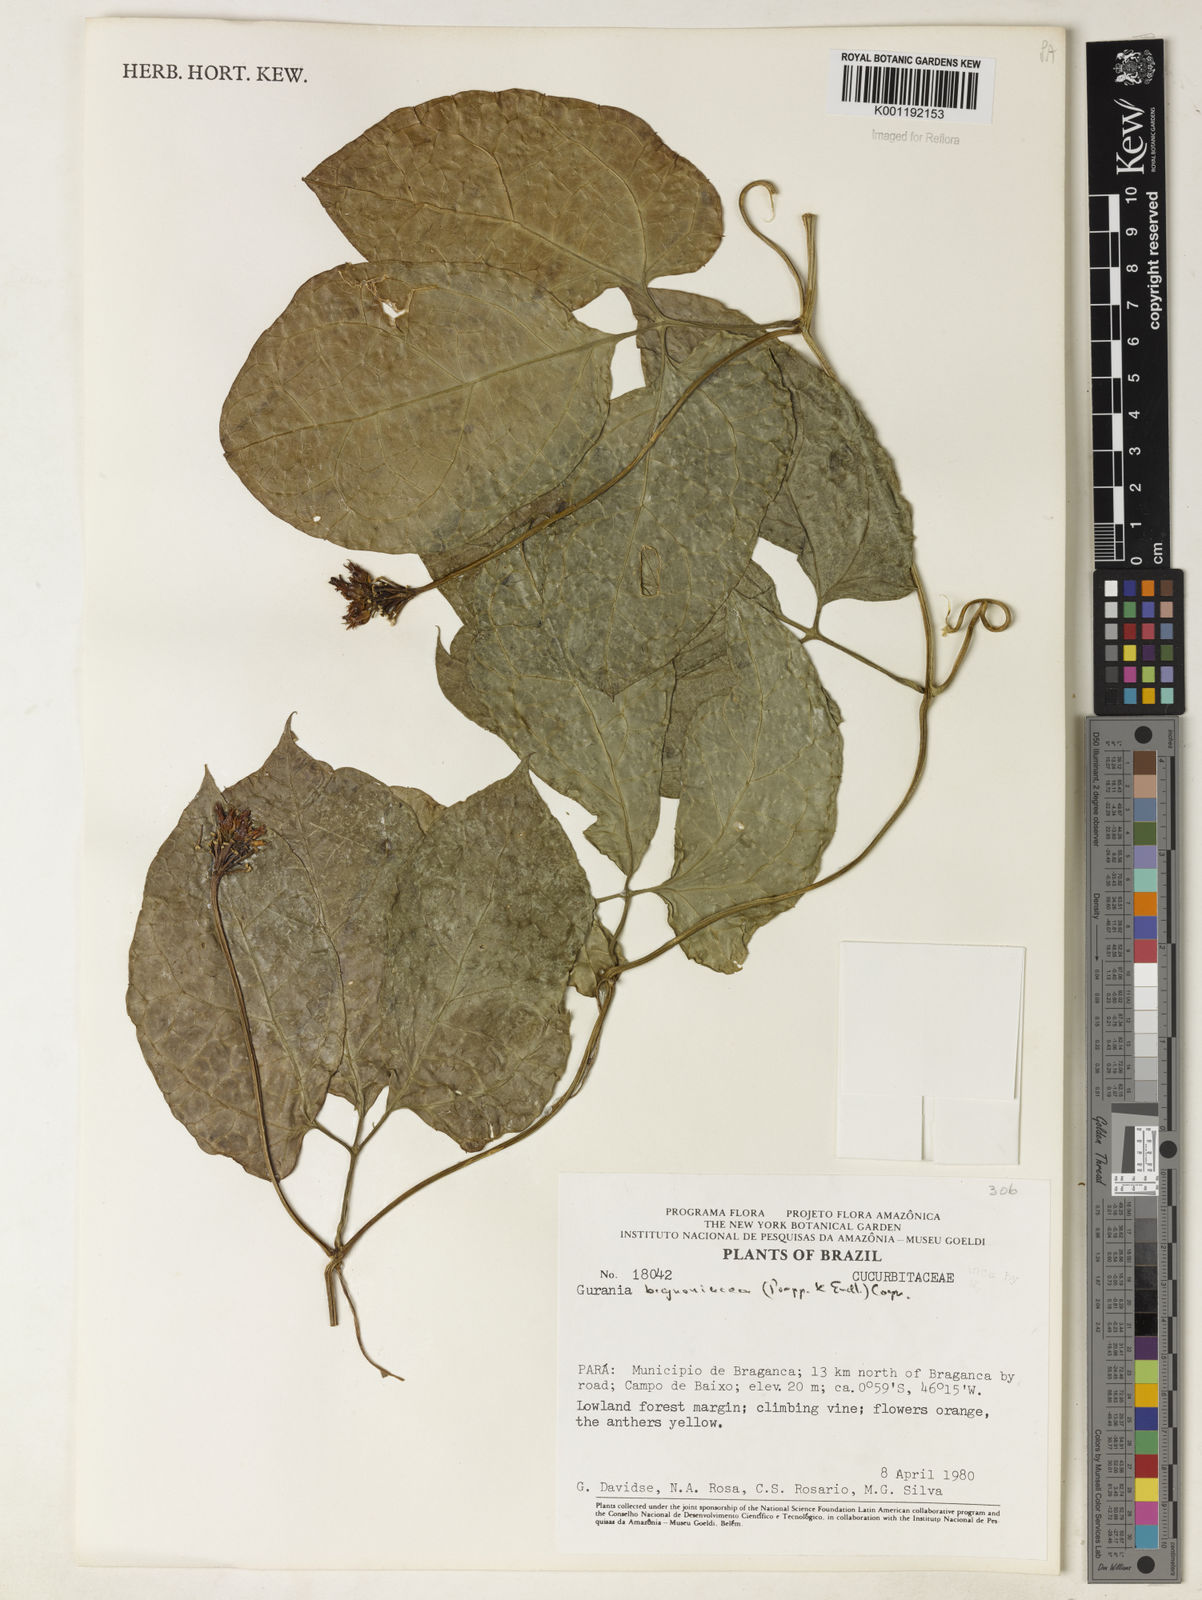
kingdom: Plantae
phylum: Tracheophyta
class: Magnoliopsida
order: Cucurbitales
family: Cucurbitaceae
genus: Gurania
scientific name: Gurania bignoniacea
